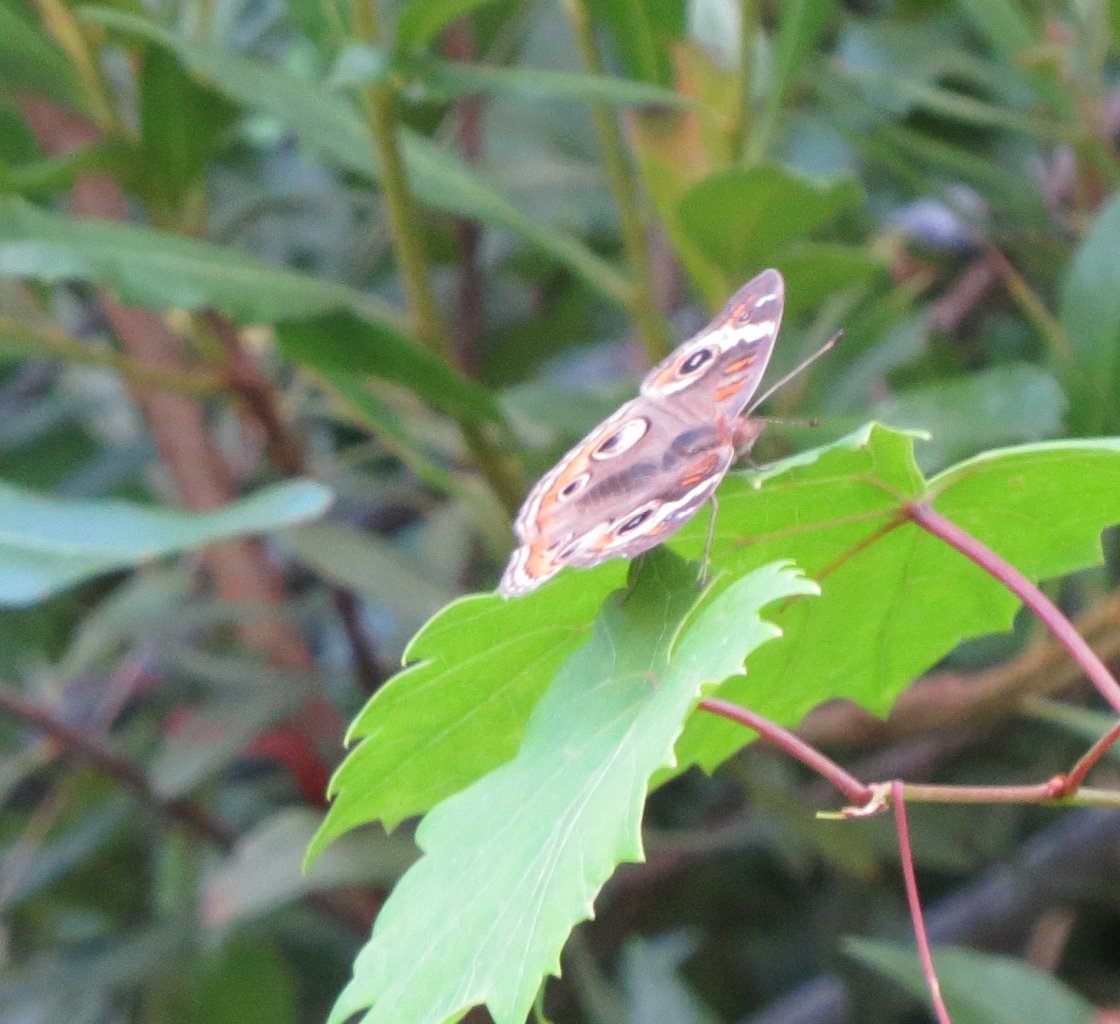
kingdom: Animalia
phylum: Arthropoda
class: Insecta
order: Lepidoptera
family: Nymphalidae
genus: Junonia
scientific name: Junonia coenia
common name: Common Buckeye
